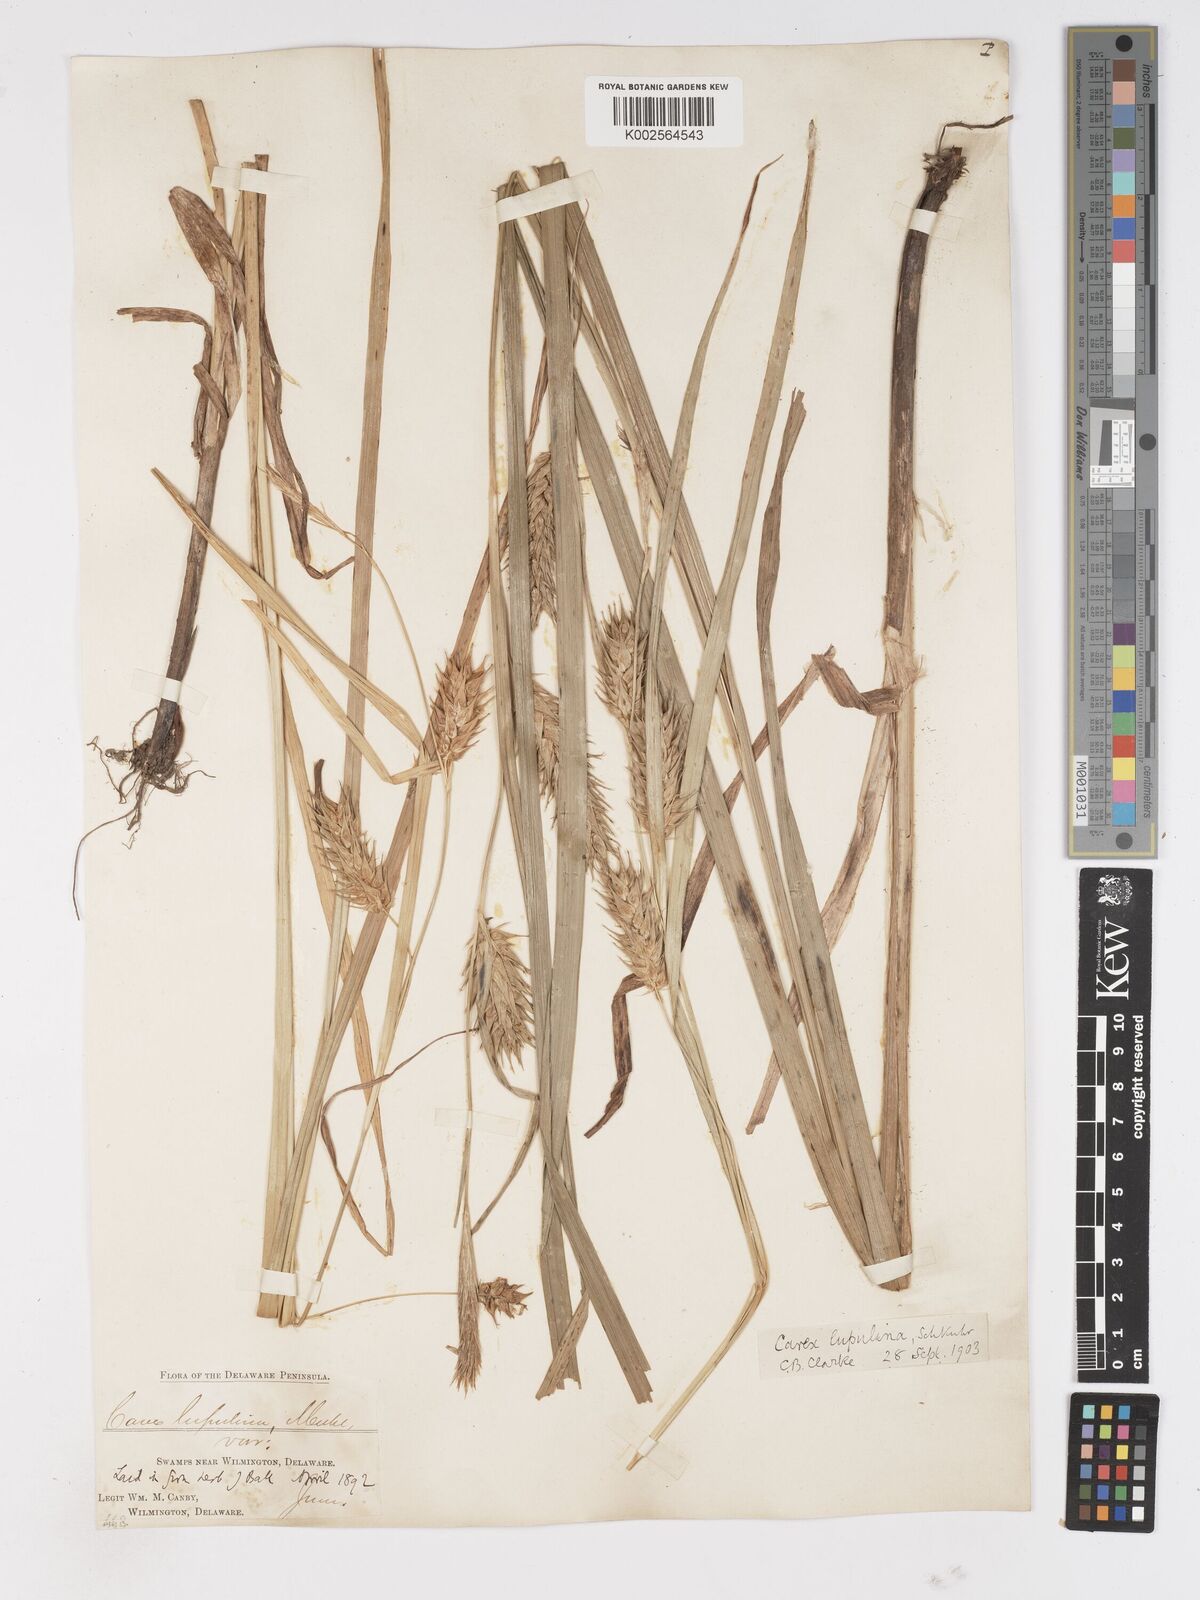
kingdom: Plantae
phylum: Tracheophyta
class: Liliopsida
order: Poales
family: Cyperaceae
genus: Carex
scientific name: Carex lupulina
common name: Hop sedge
